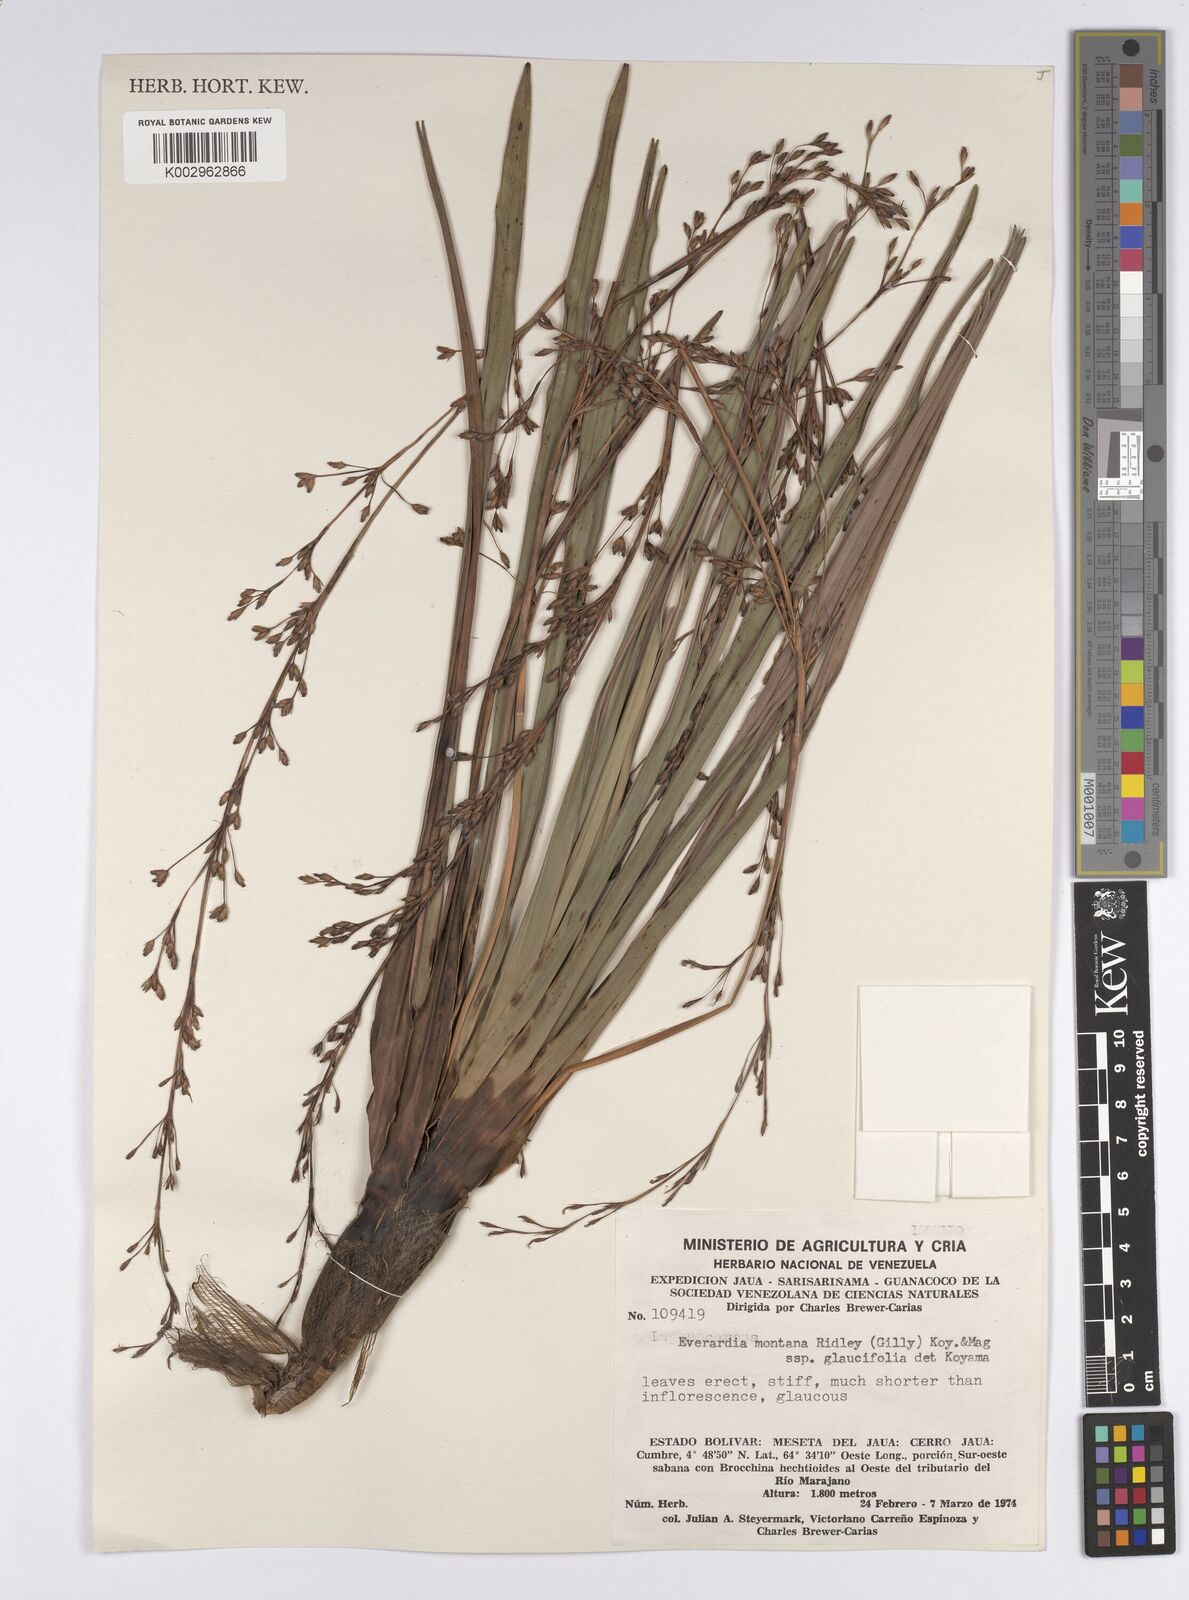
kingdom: Plantae
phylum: Tracheophyta
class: Liliopsida
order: Poales
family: Cyperaceae
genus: Cephalocarpus
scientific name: Cephalocarpus montanus
